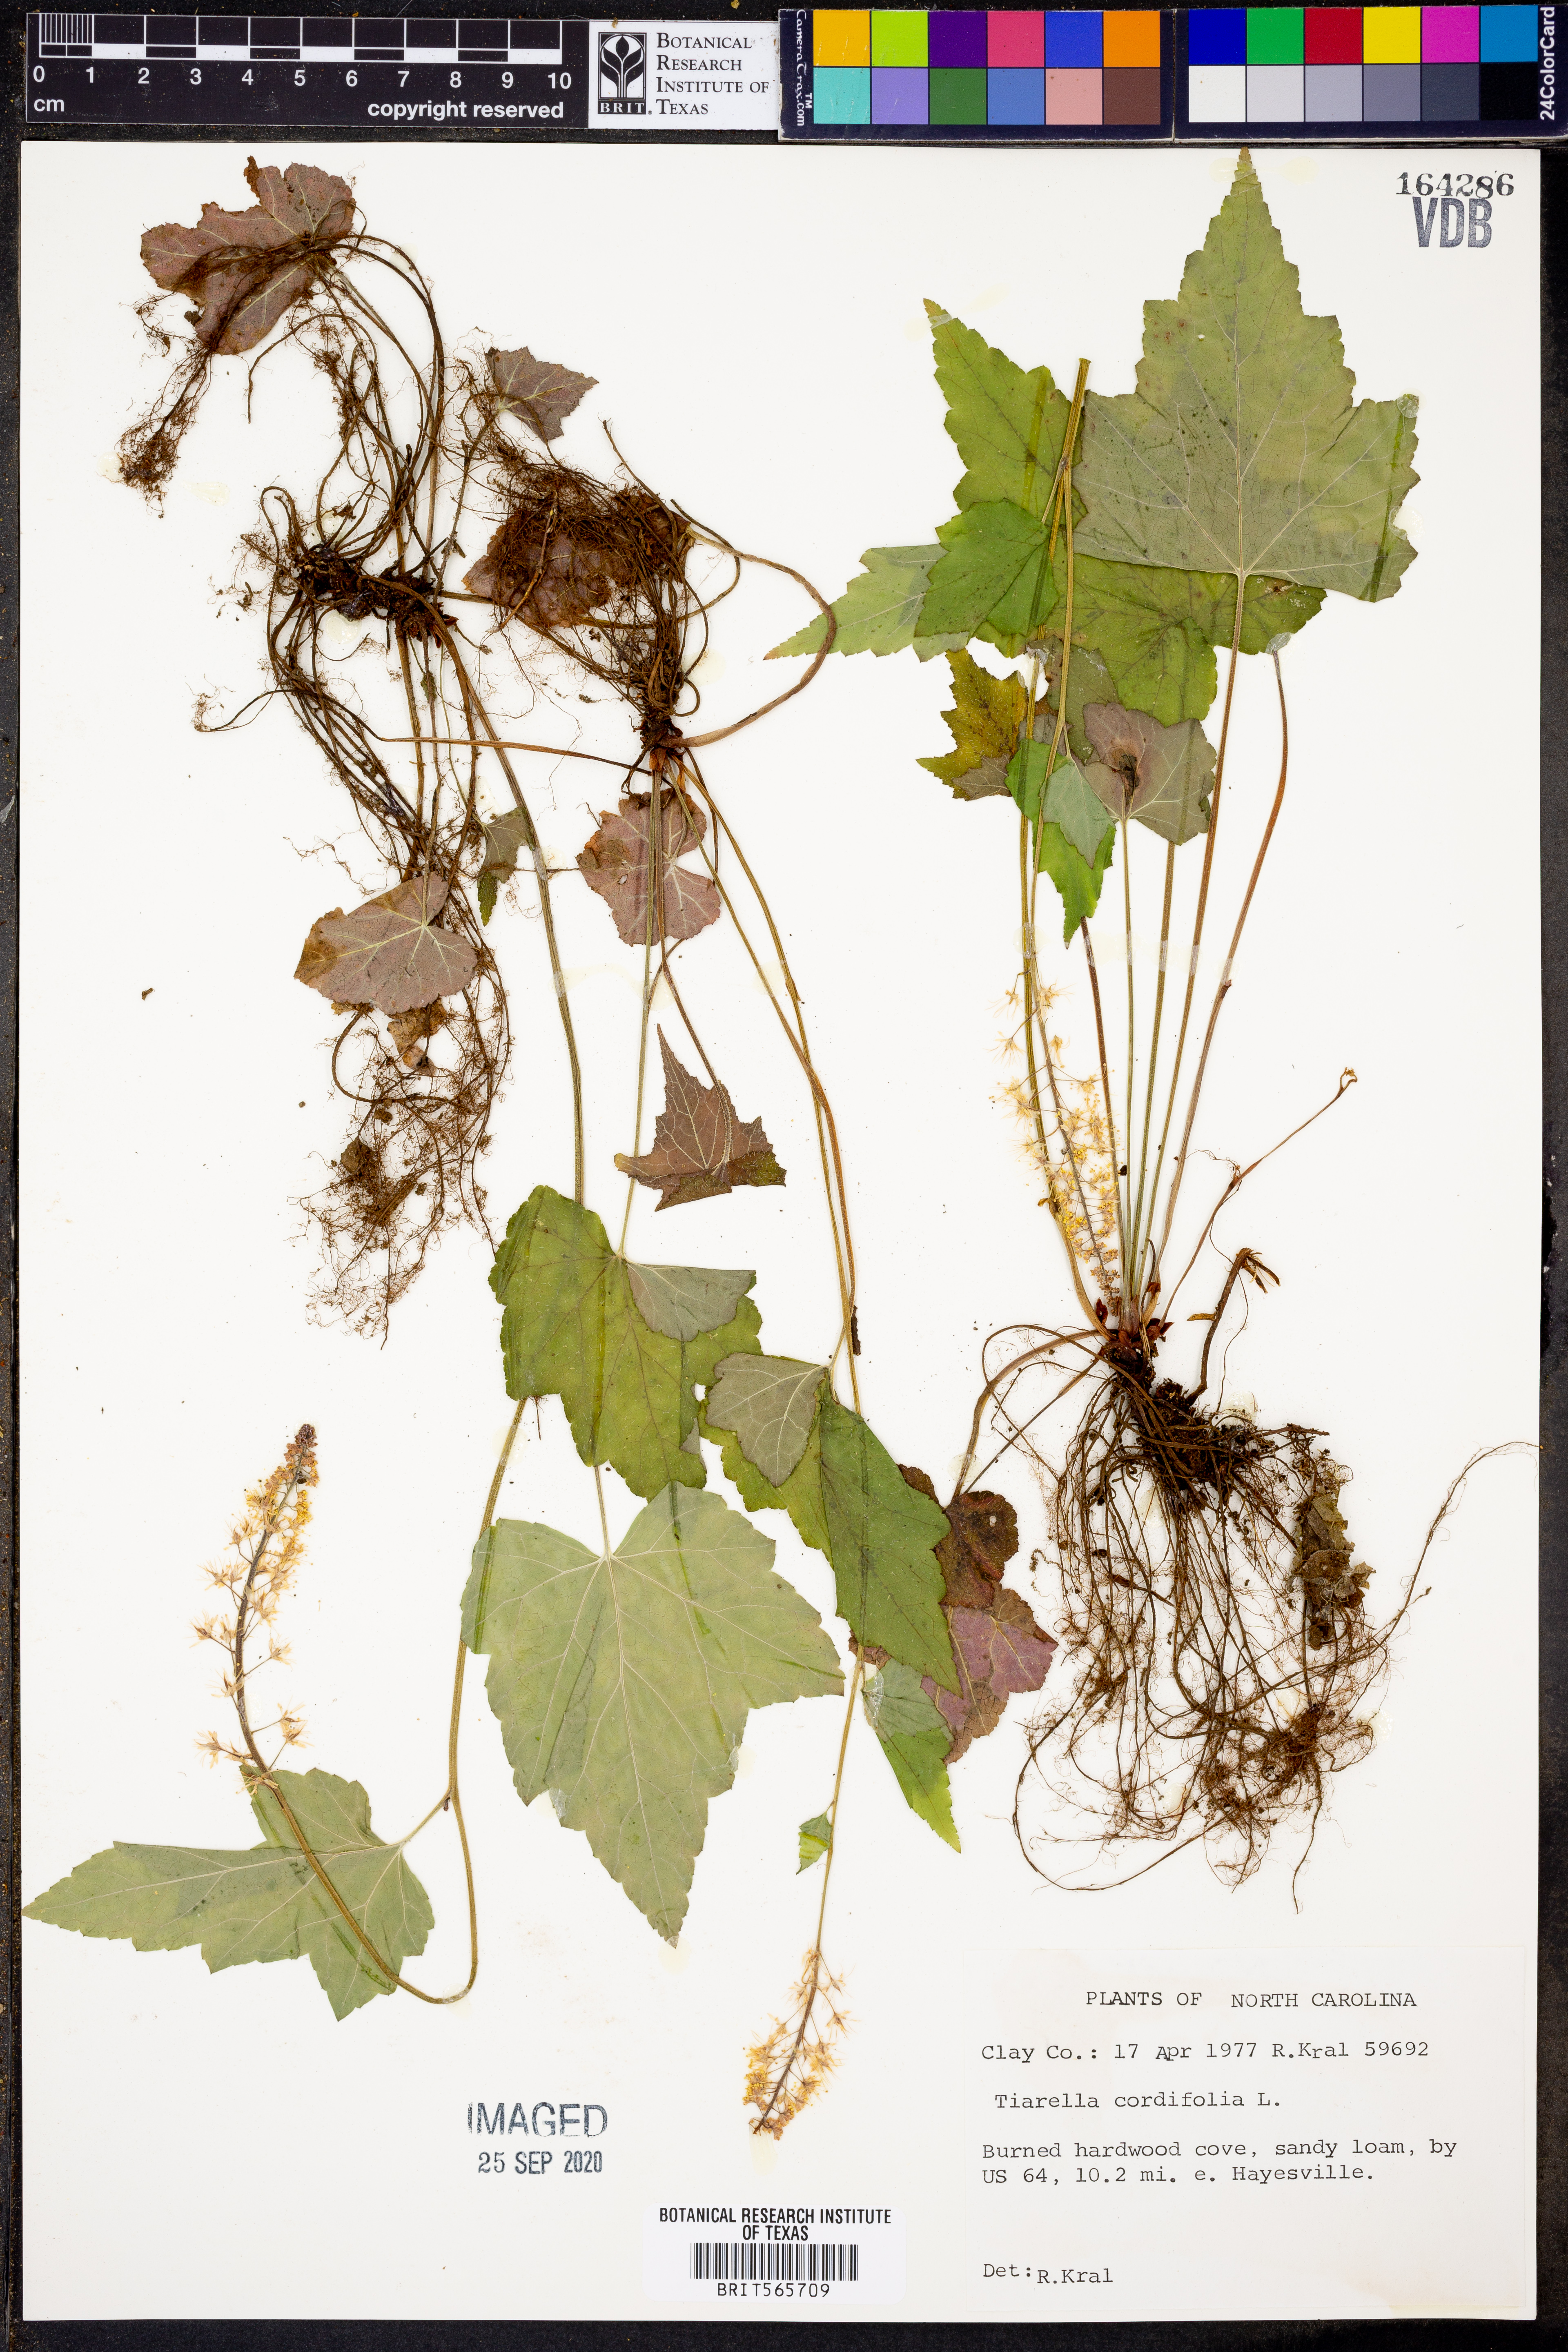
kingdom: Plantae
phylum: Tracheophyta
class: Magnoliopsida
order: Saxifragales
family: Saxifragaceae
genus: Tiarella
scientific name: Tiarella cordifolia
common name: Foamflower
